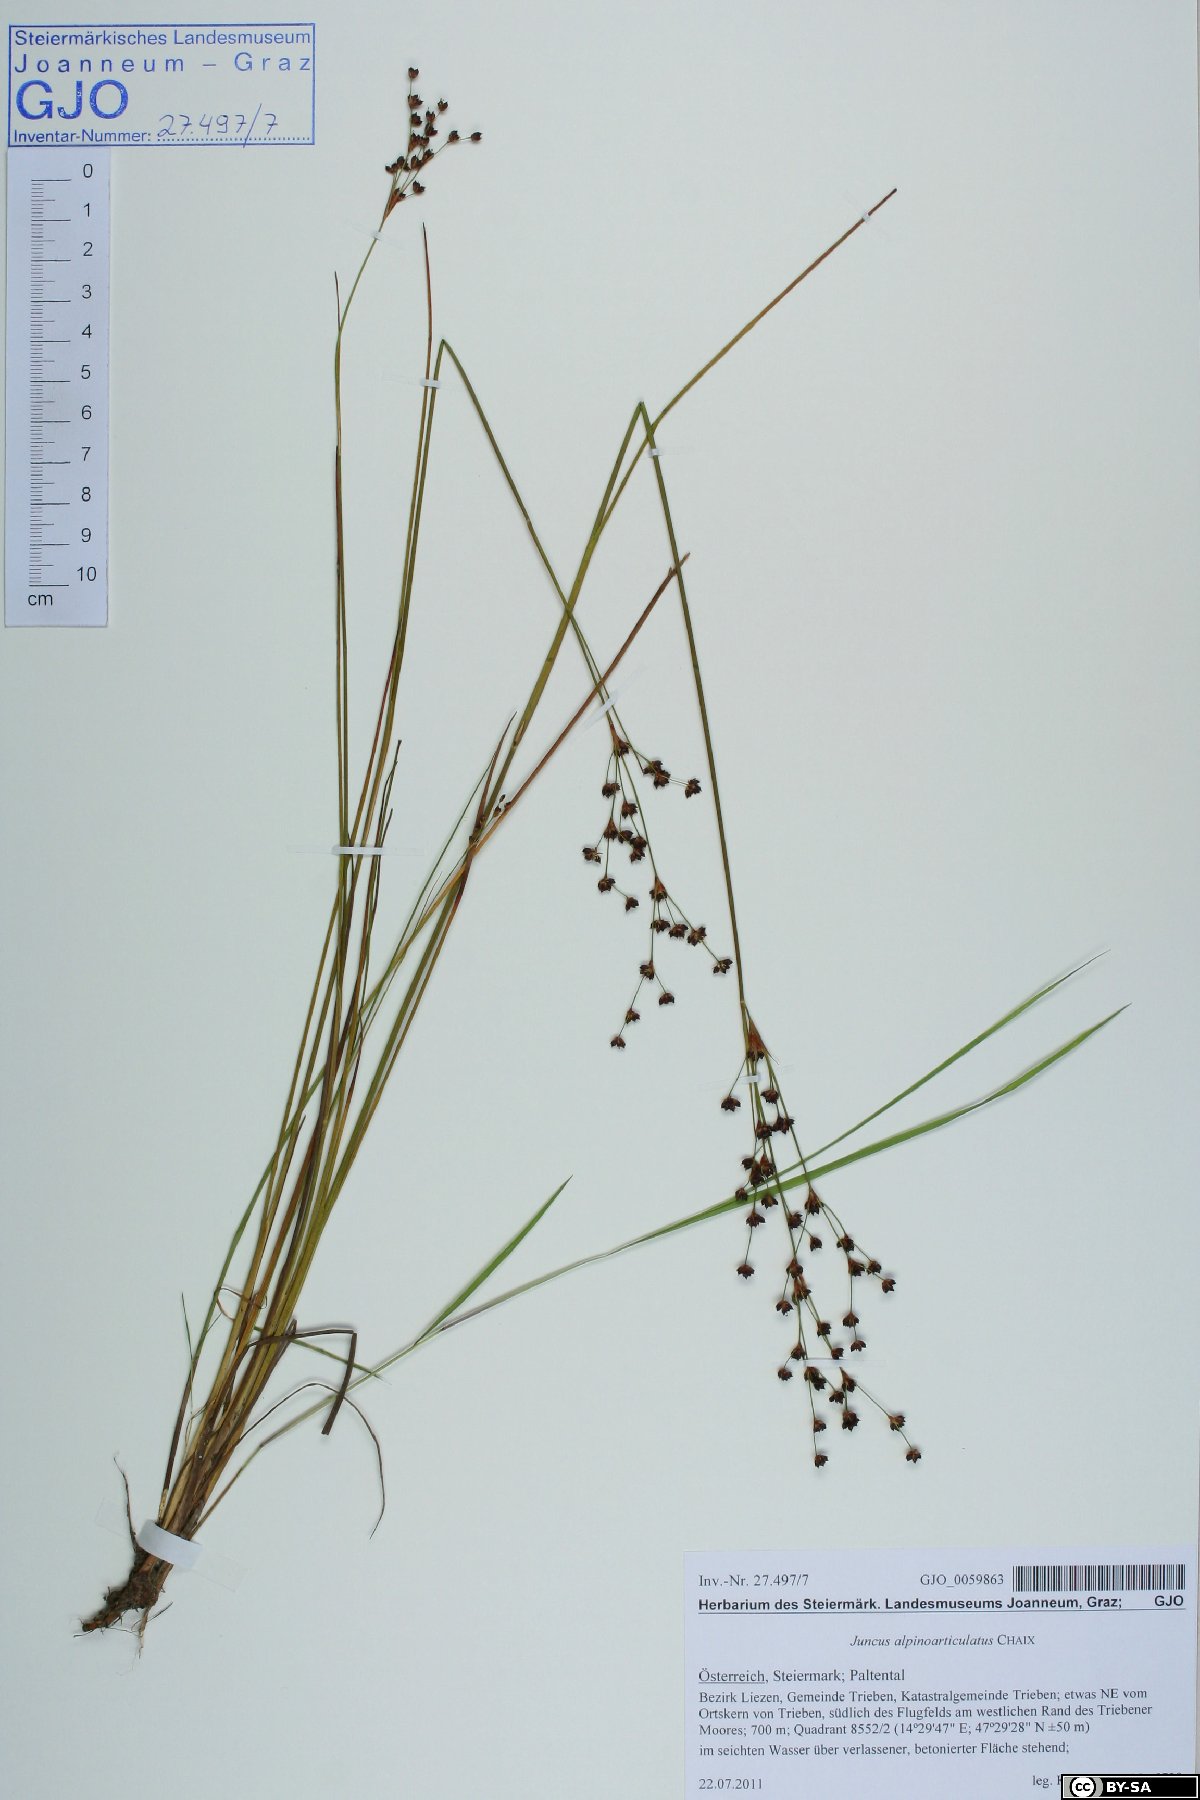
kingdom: Plantae
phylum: Tracheophyta
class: Liliopsida
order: Poales
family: Juncaceae
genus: Juncus
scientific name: Juncus alpinoarticulatus
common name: Alpine rush
